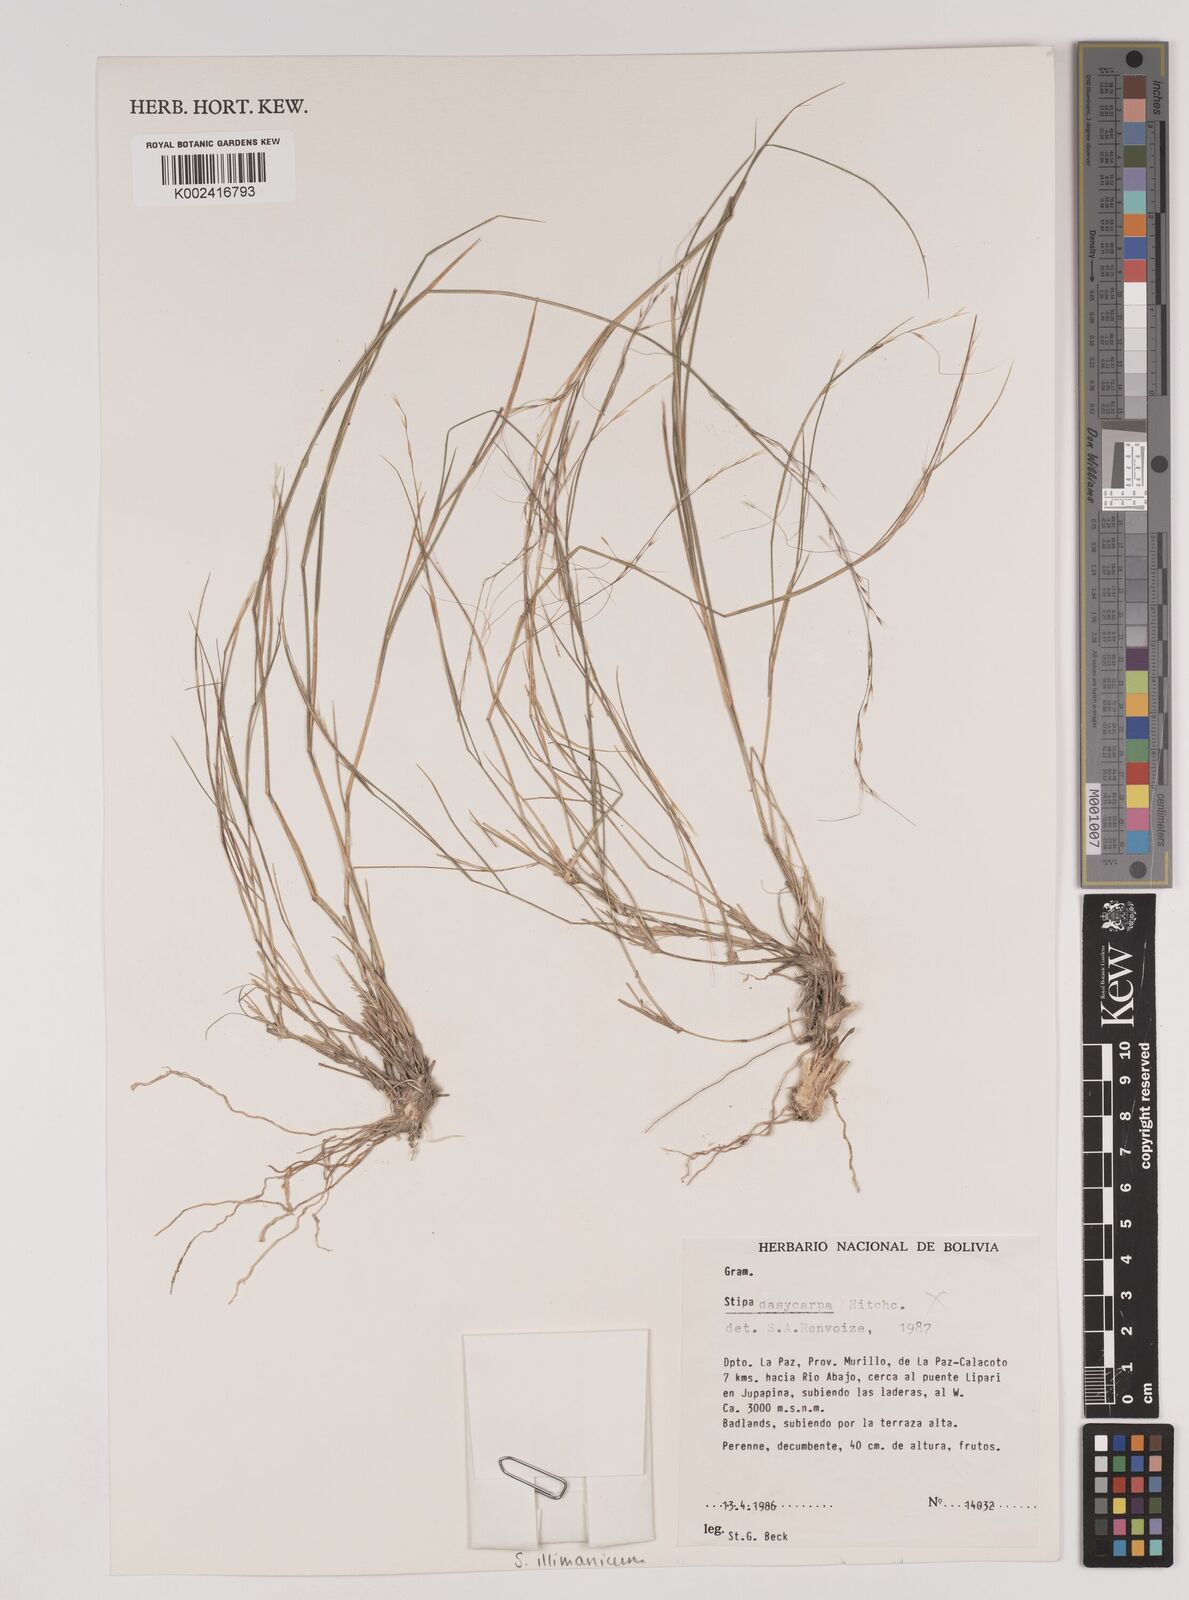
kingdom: Plantae
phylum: Tracheophyta
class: Liliopsida
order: Poales
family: Poaceae
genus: Stipa
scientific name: Stipa illimanica
